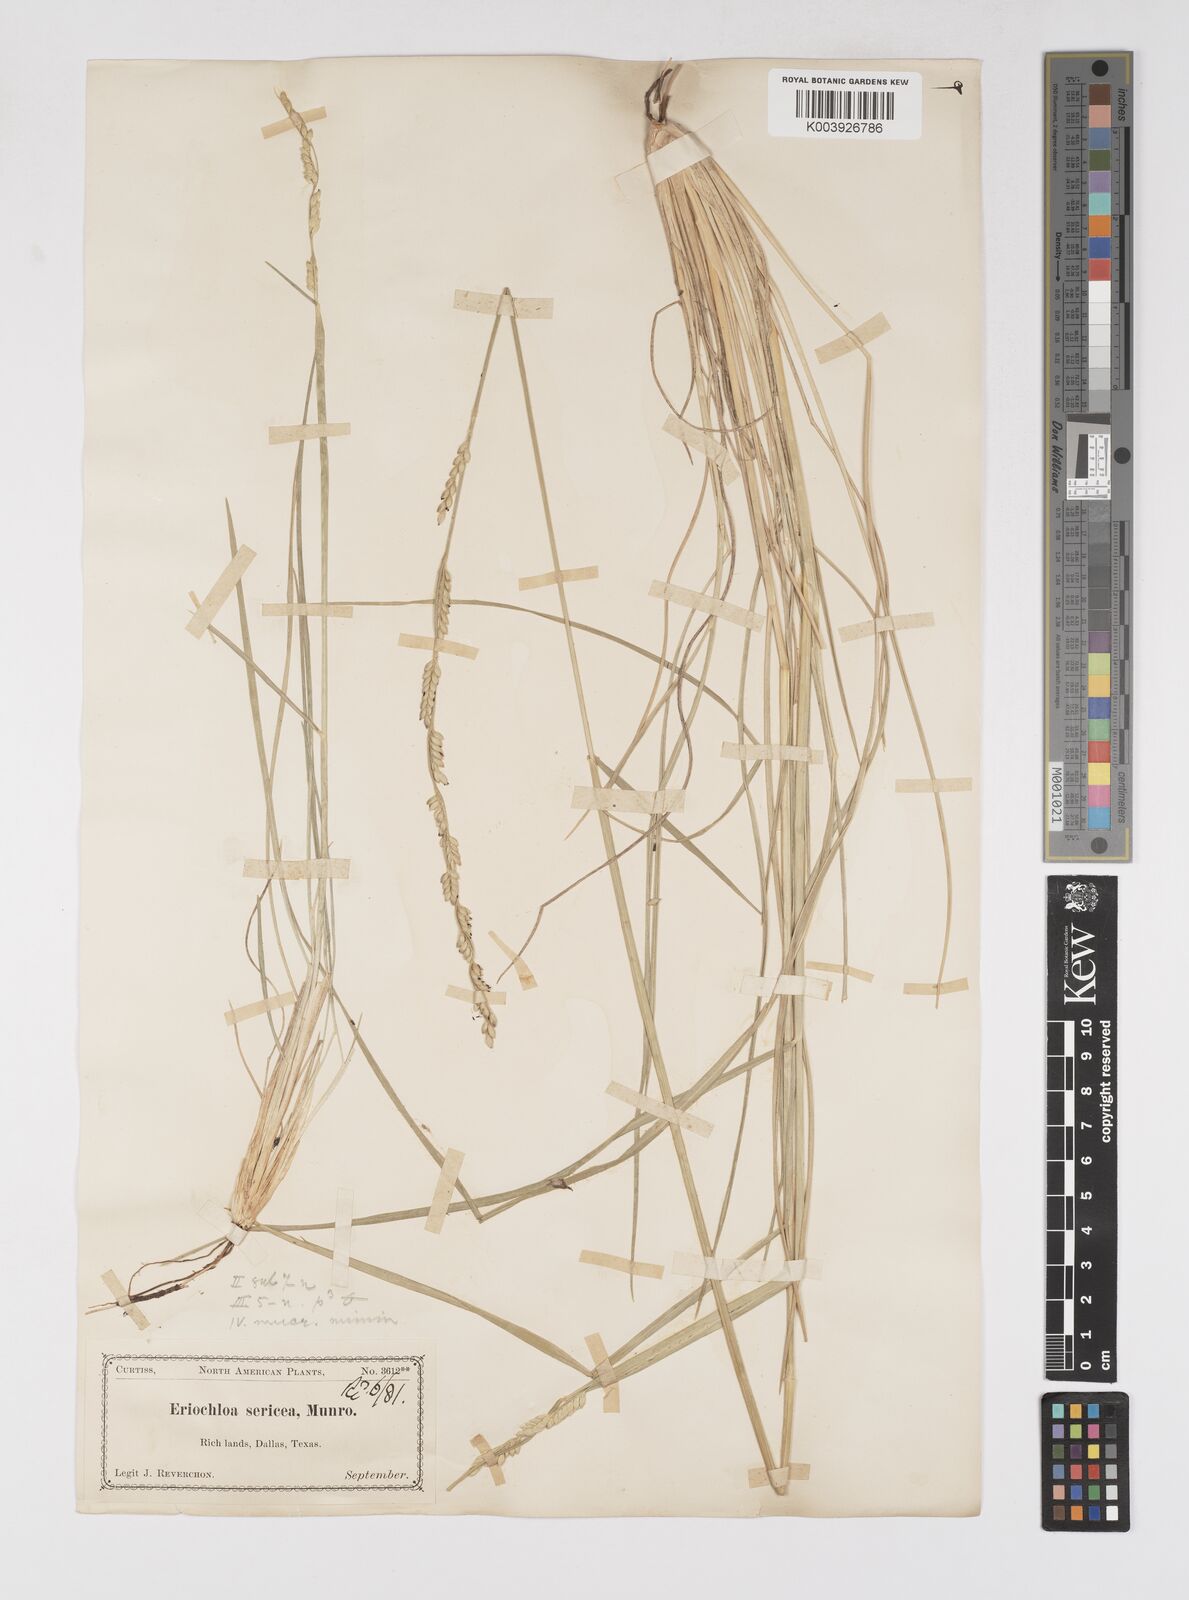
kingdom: Plantae
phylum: Tracheophyta
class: Liliopsida
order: Poales
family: Poaceae
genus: Eriochloa
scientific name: Eriochloa sericea
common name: Texas cup grass
